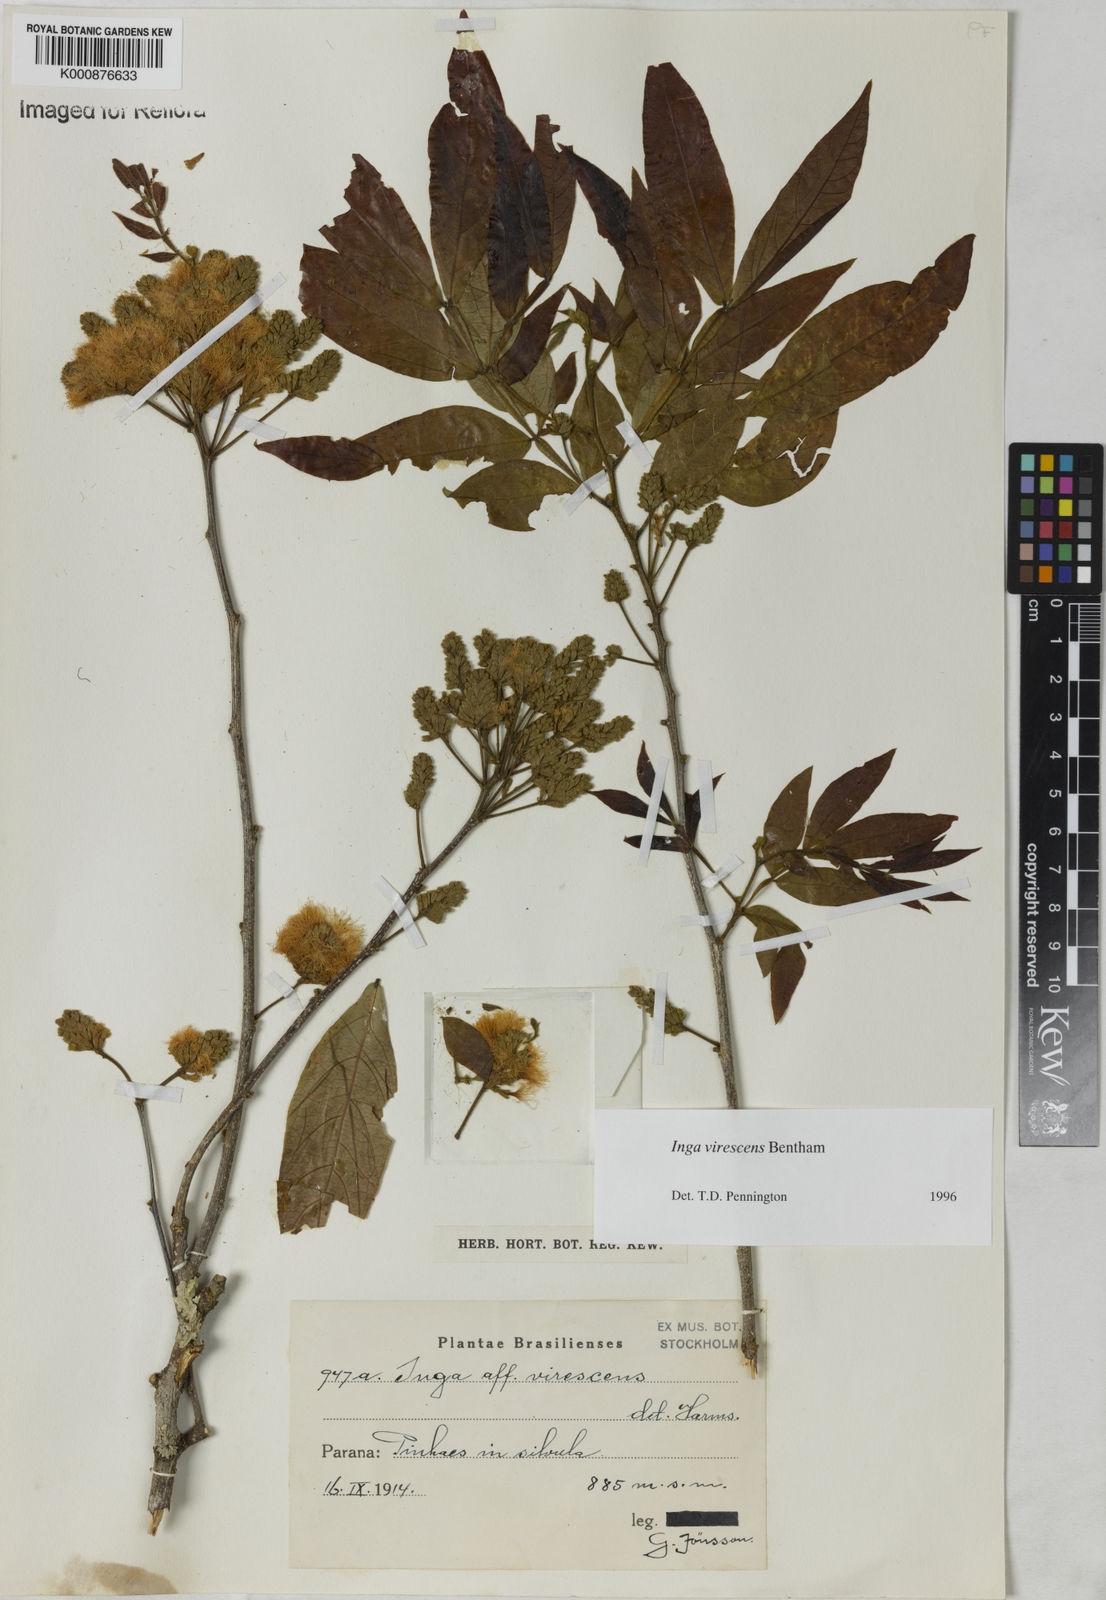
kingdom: Plantae
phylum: Tracheophyta
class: Magnoliopsida
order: Fabales
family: Fabaceae
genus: Inga
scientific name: Inga virescens
